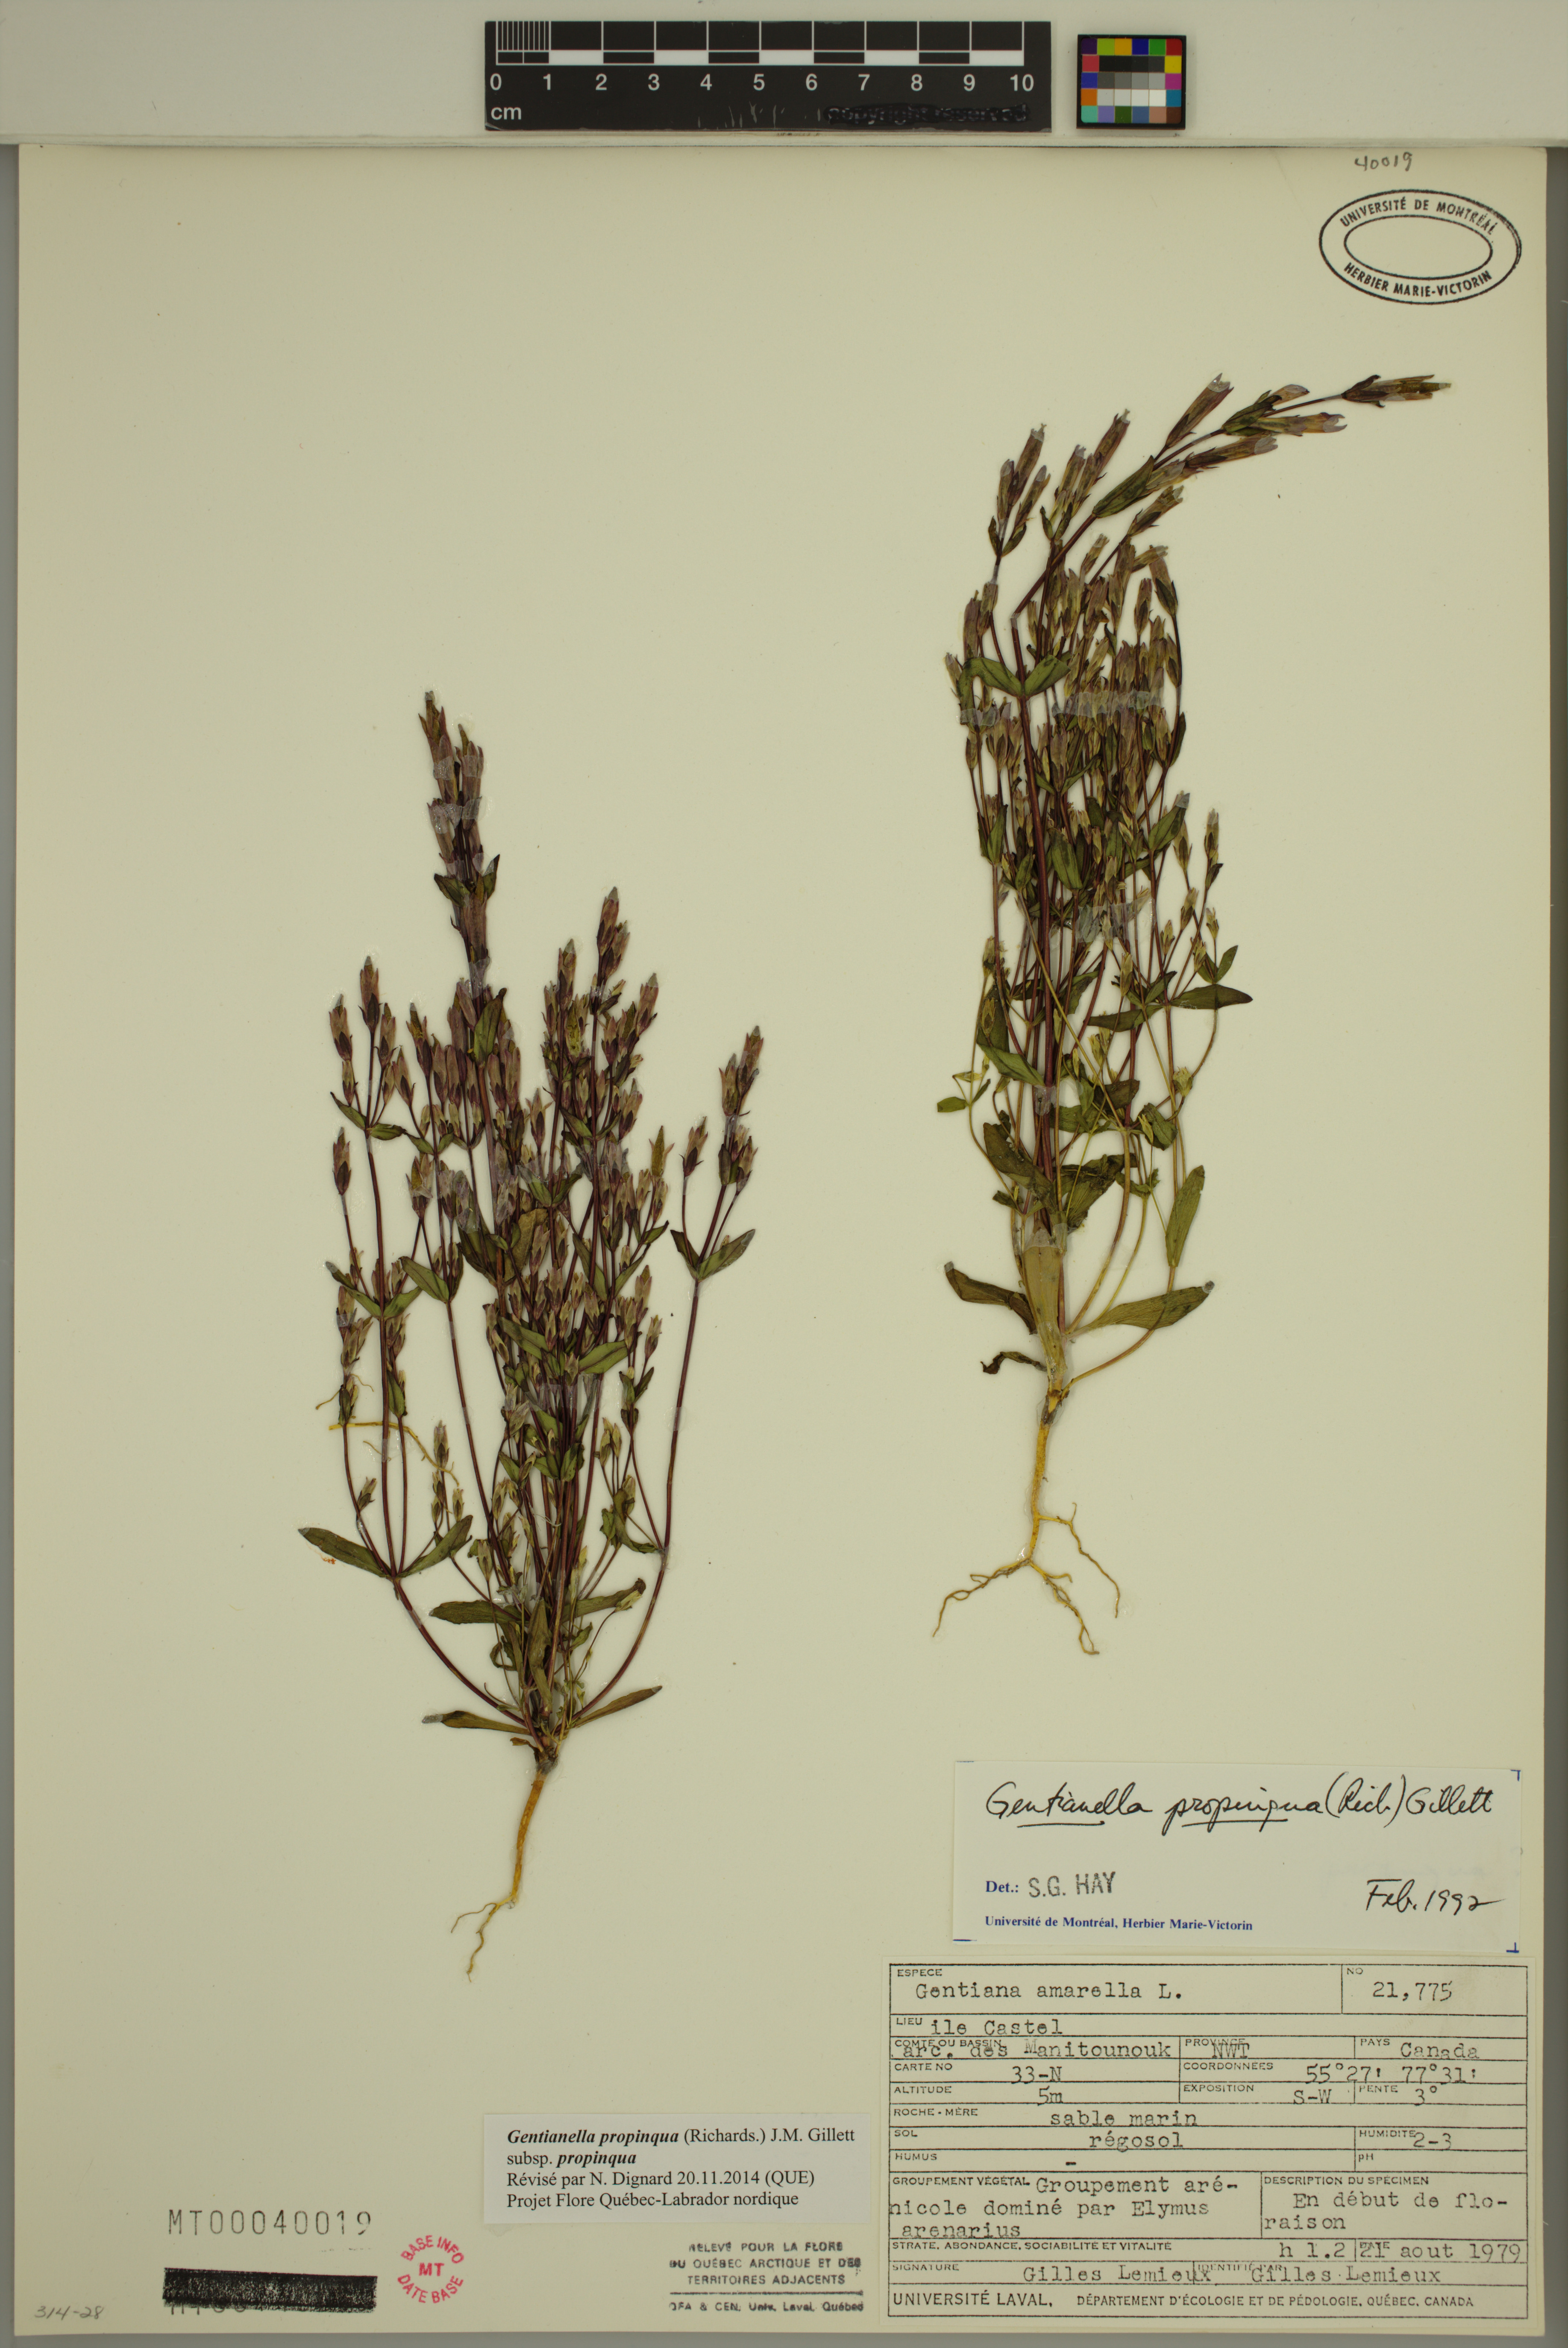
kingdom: Plantae
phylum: Tracheophyta
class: Magnoliopsida
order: Gentianales
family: Gentianaceae
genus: Gentianella
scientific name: Gentianella propinqua
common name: Four-parted dwarf-gentian
